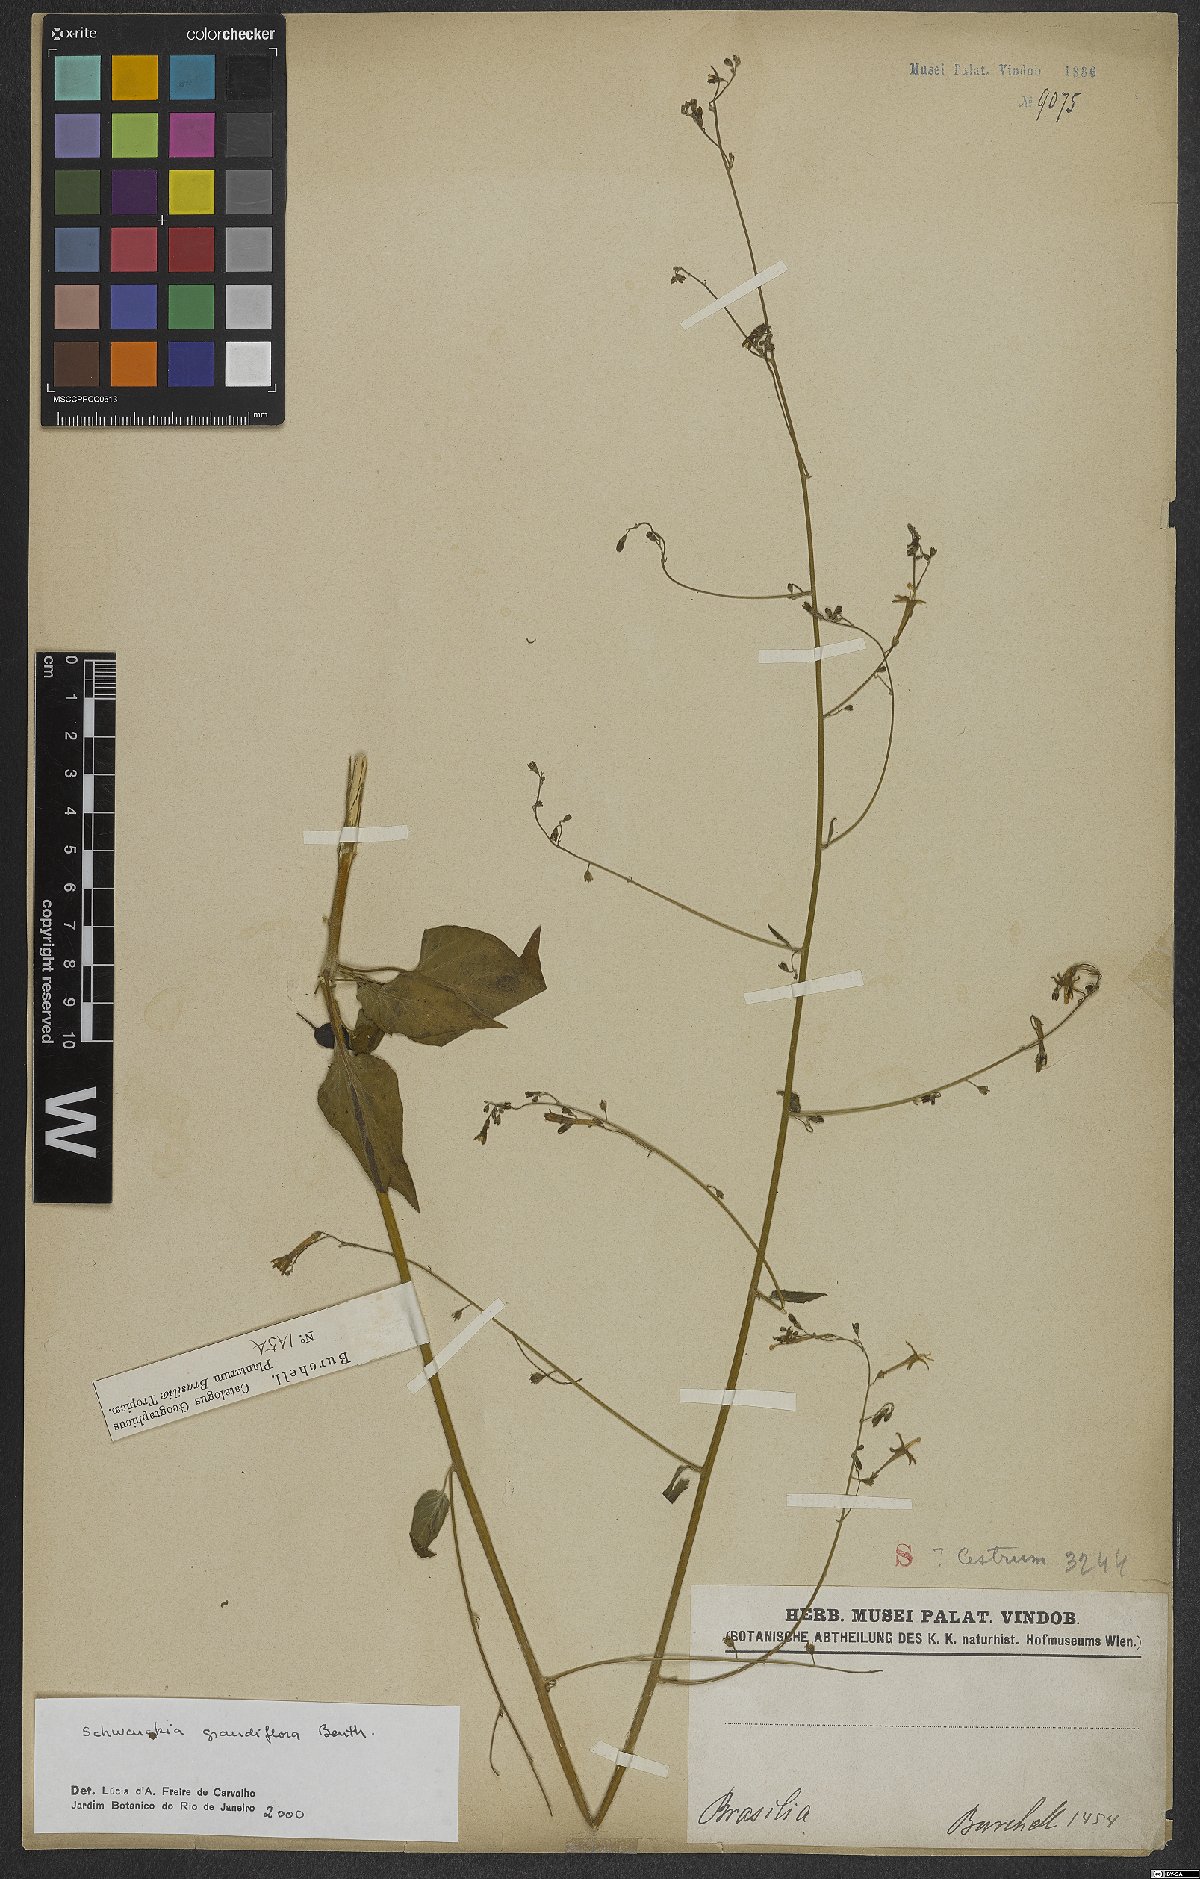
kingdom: Plantae
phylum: Tracheophyta
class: Magnoliopsida
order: Solanales
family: Solanaceae
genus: Schwenckia
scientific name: Schwenckia grandiflora
